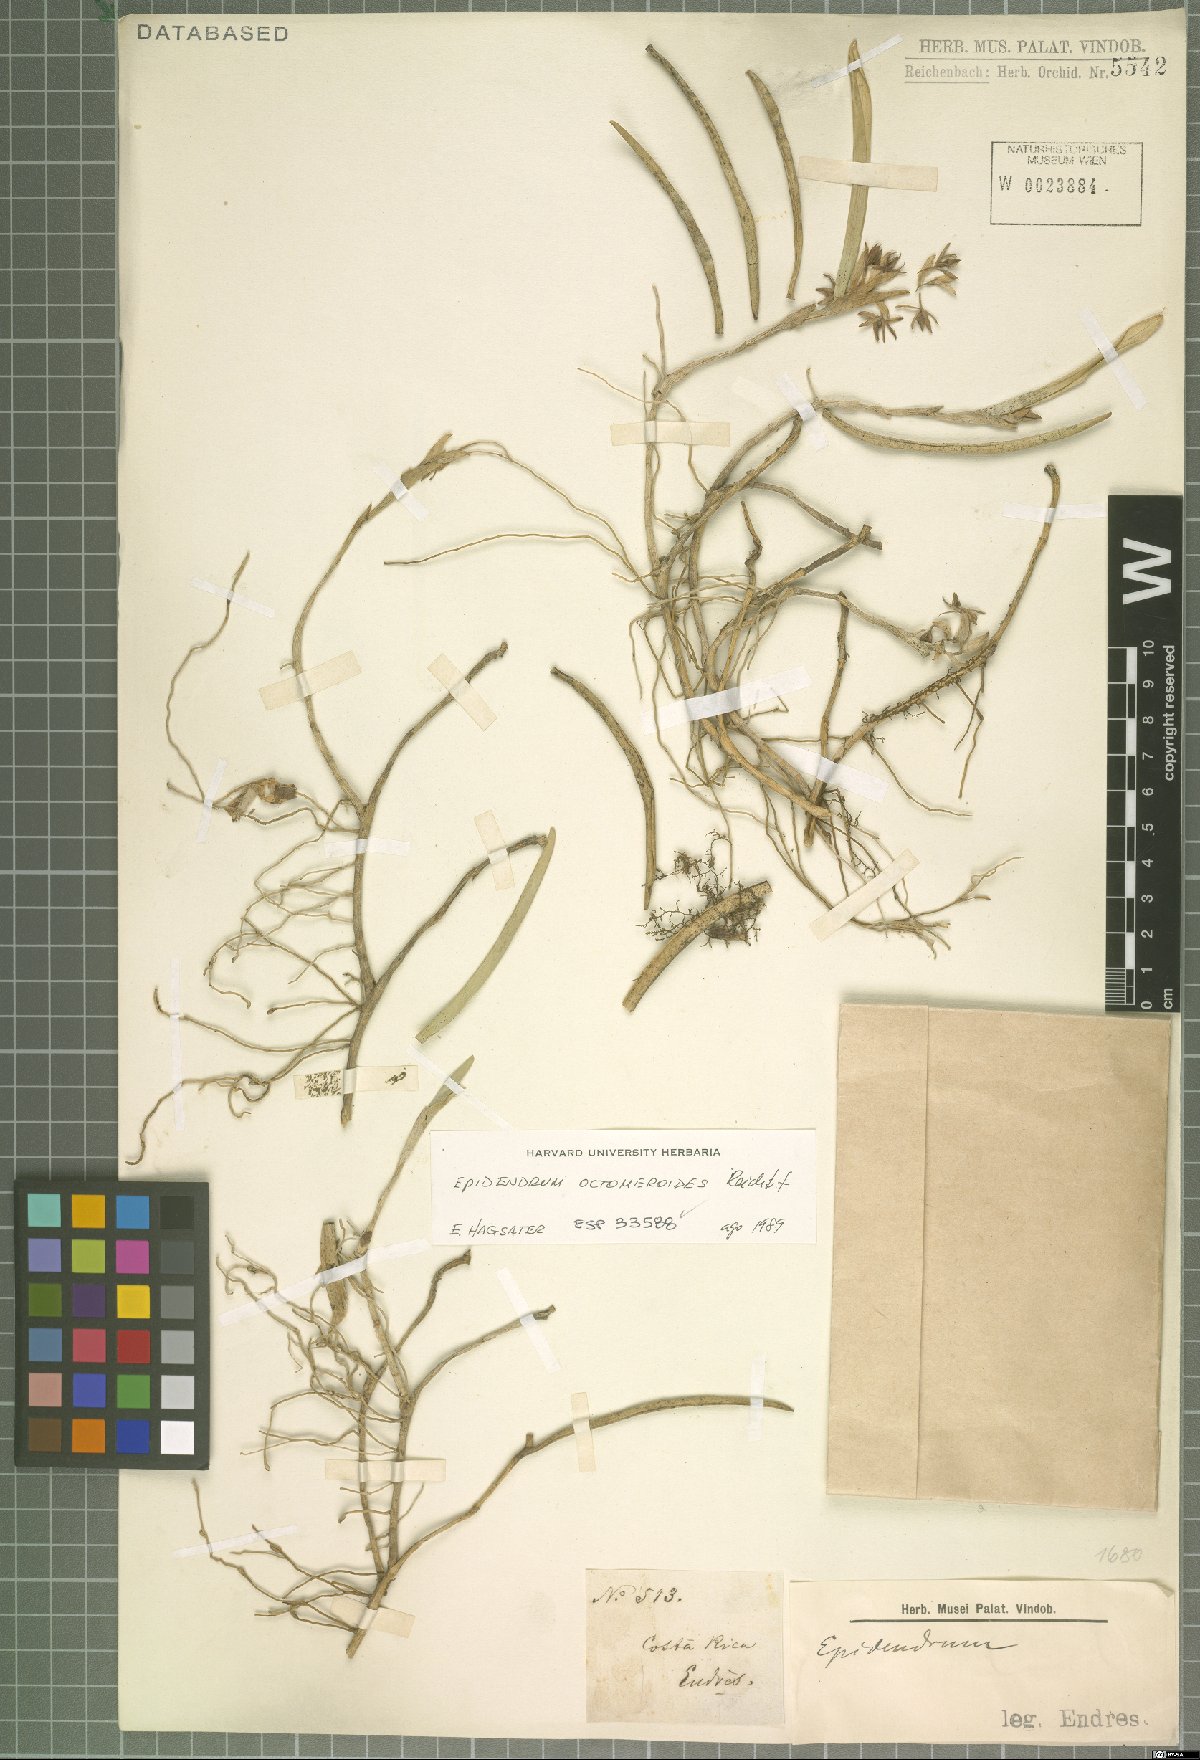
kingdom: Plantae
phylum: Tracheophyta
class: Liliopsida
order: Asparagales
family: Orchidaceae
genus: Epidendrum
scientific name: Epidendrum octomerioides
